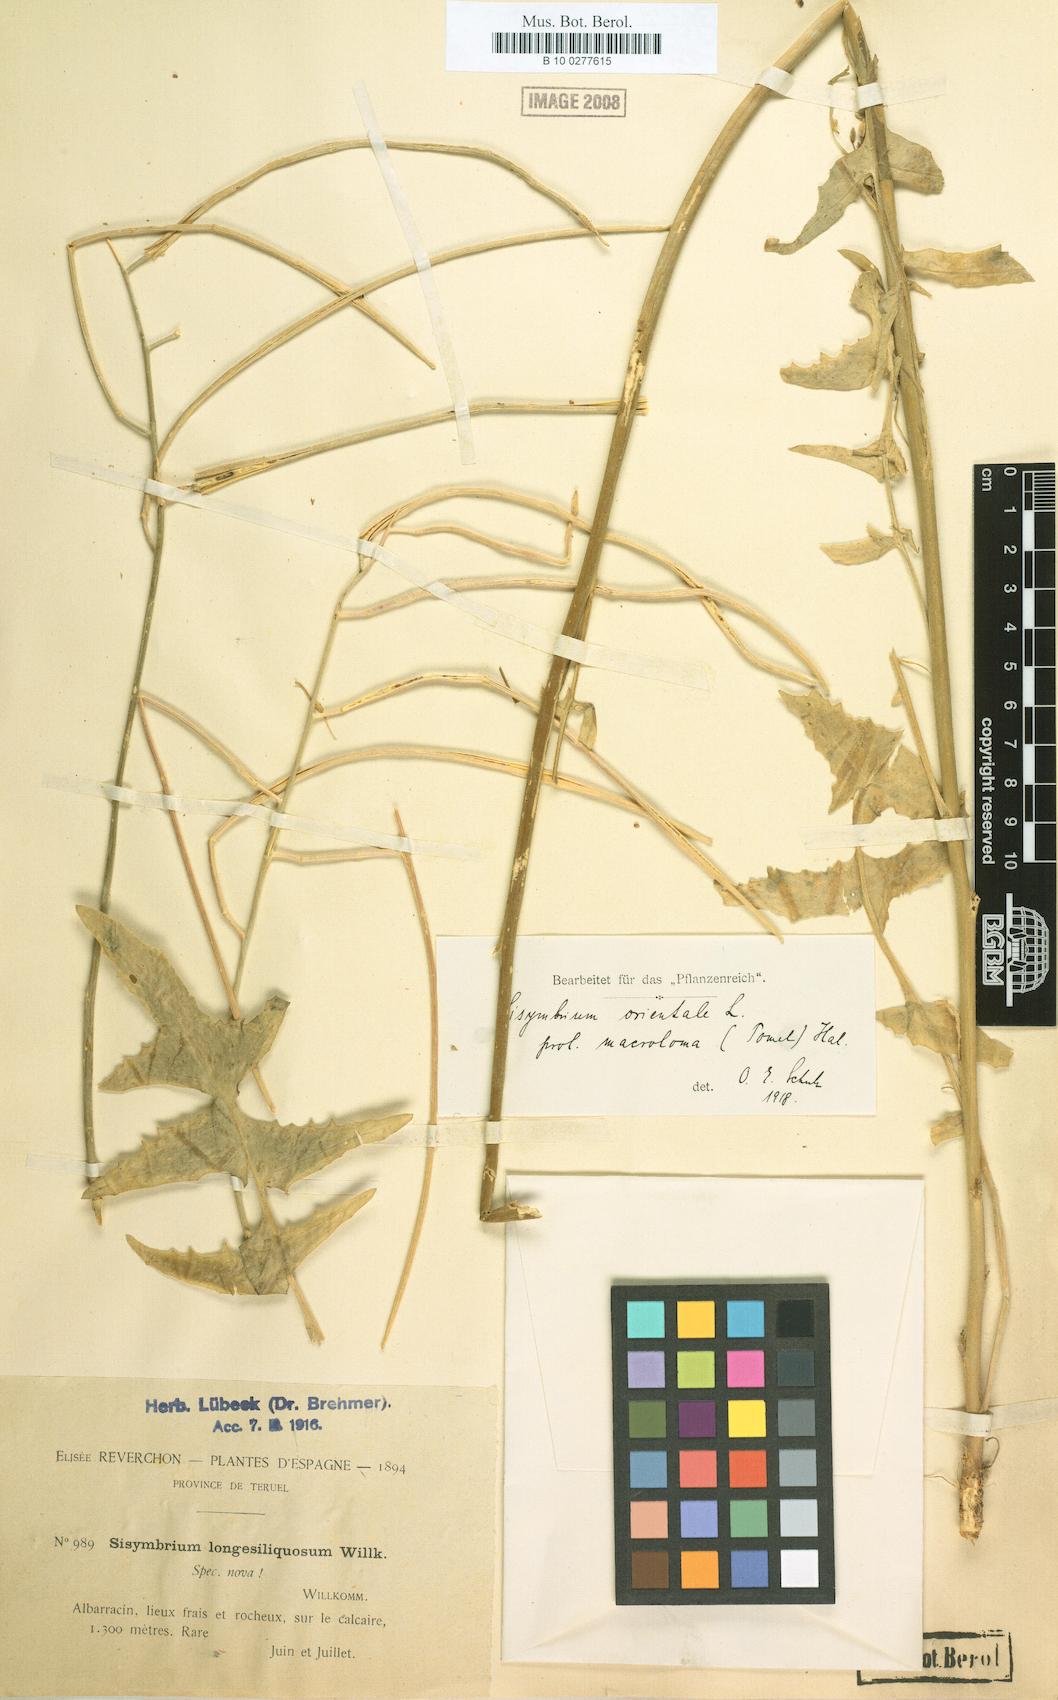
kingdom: Plantae
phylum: Tracheophyta
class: Magnoliopsida
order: Brassicales
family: Brassicaceae
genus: Sisymbrium
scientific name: Sisymbrium macroloma
